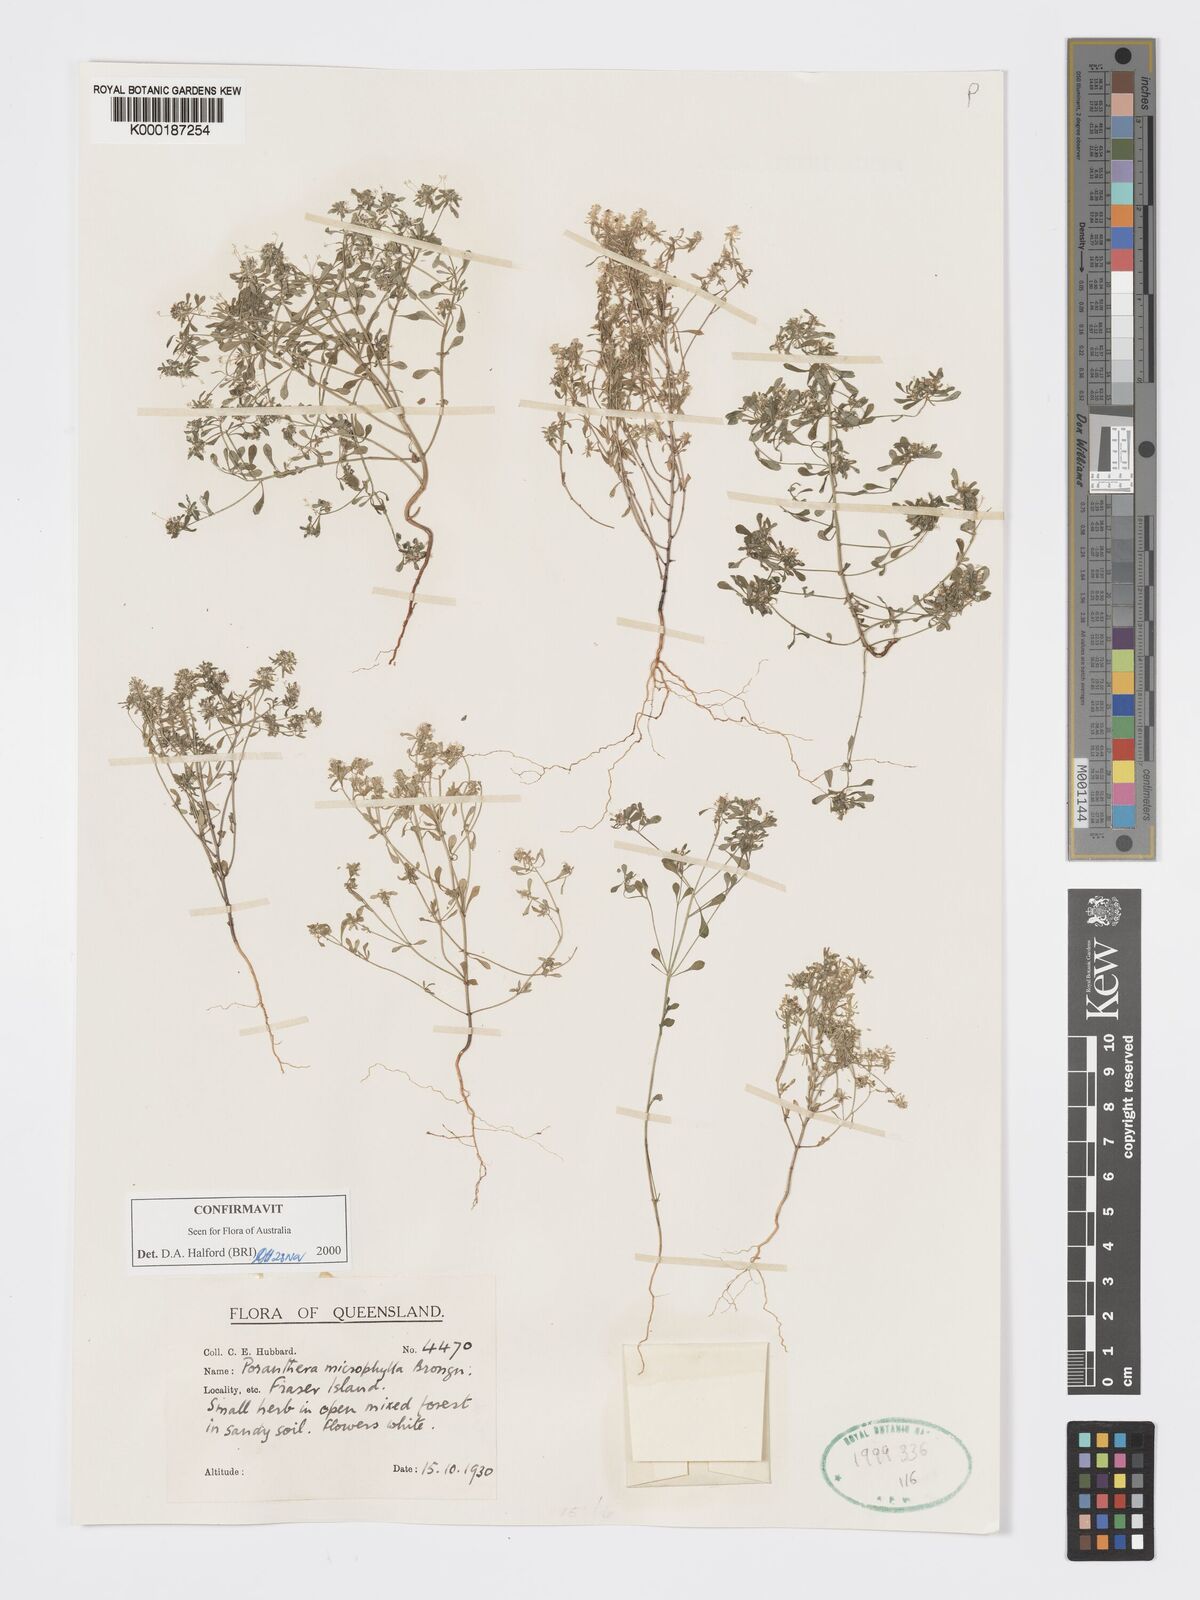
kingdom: Plantae
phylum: Tracheophyta
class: Magnoliopsida
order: Malpighiales
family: Phyllanthaceae
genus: Poranthera
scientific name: Poranthera microphylla
